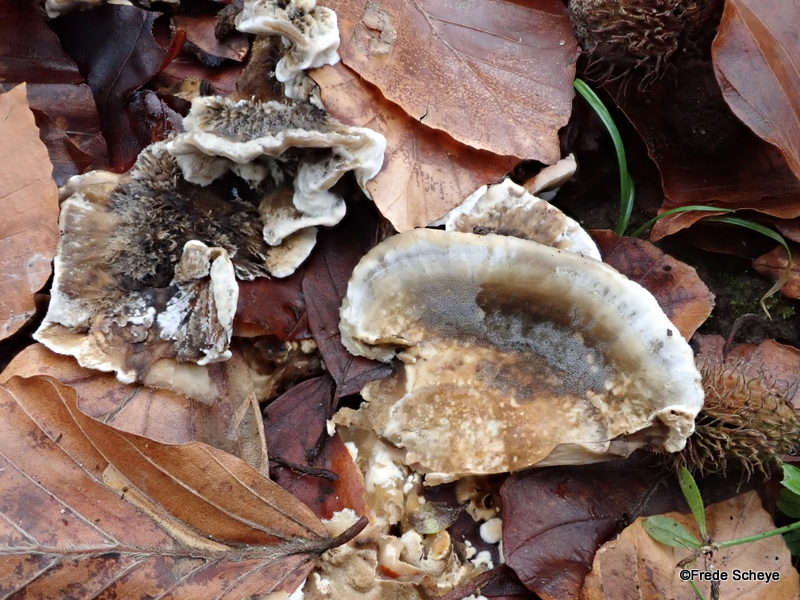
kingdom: Fungi
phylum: Basidiomycota
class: Agaricomycetes
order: Polyporales
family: Phanerochaetaceae
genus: Bjerkandera
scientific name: Bjerkandera adusta
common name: sveden sodporesvamp
